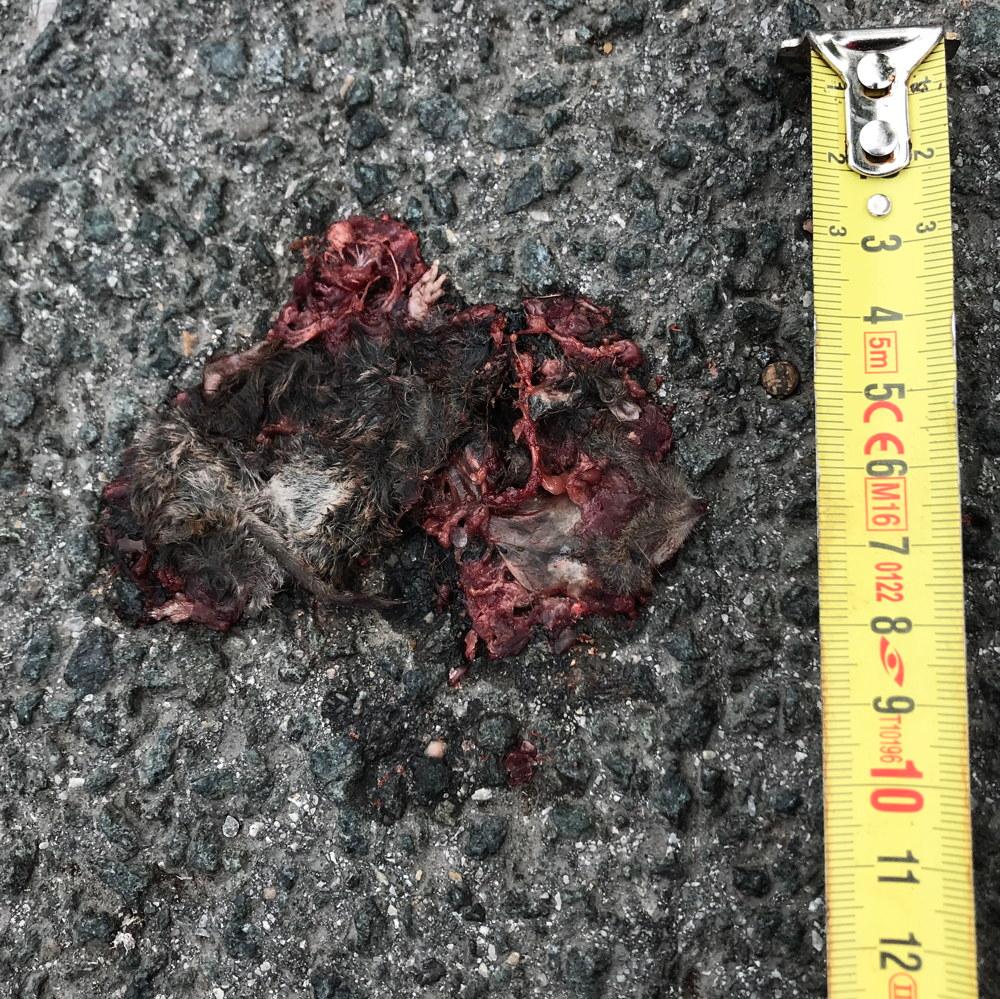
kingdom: Animalia
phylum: Chordata
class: Mammalia
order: Soricomorpha
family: Soricidae
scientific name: Soricidae
